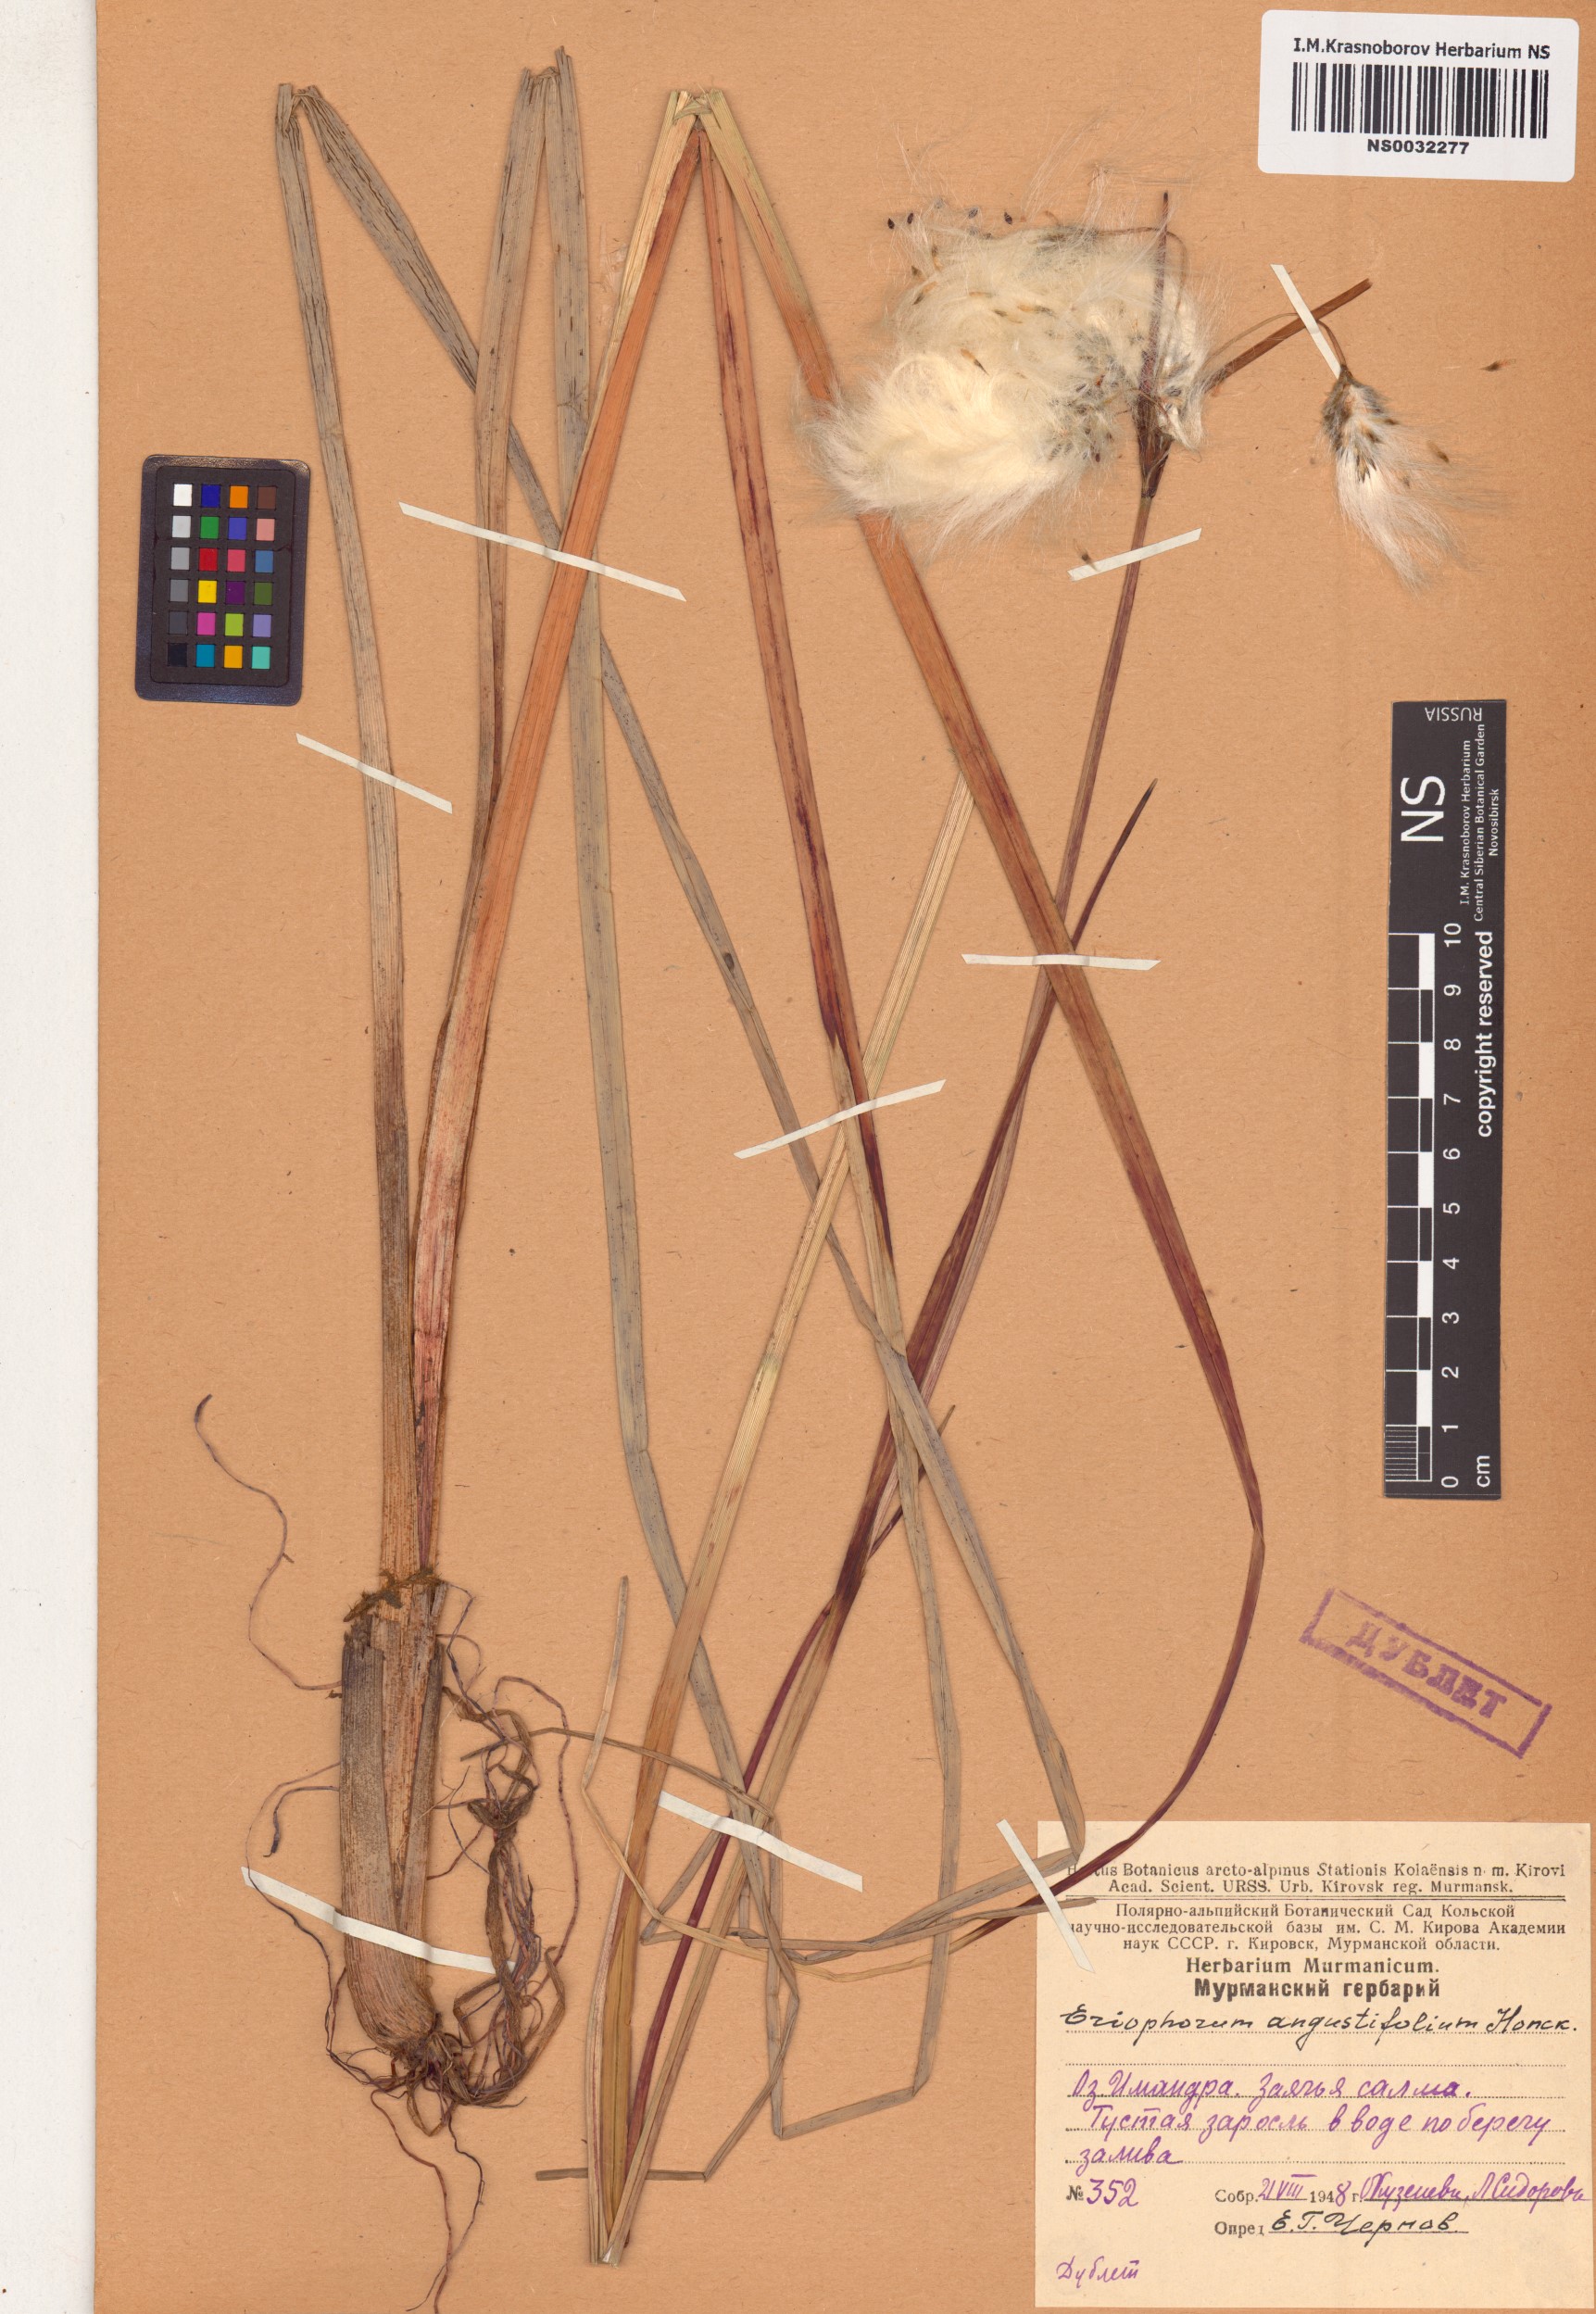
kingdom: Plantae
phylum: Tracheophyta
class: Liliopsida
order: Poales
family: Cyperaceae
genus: Eriophorum
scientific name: Eriophorum angustifolium
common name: Common cottongrass
